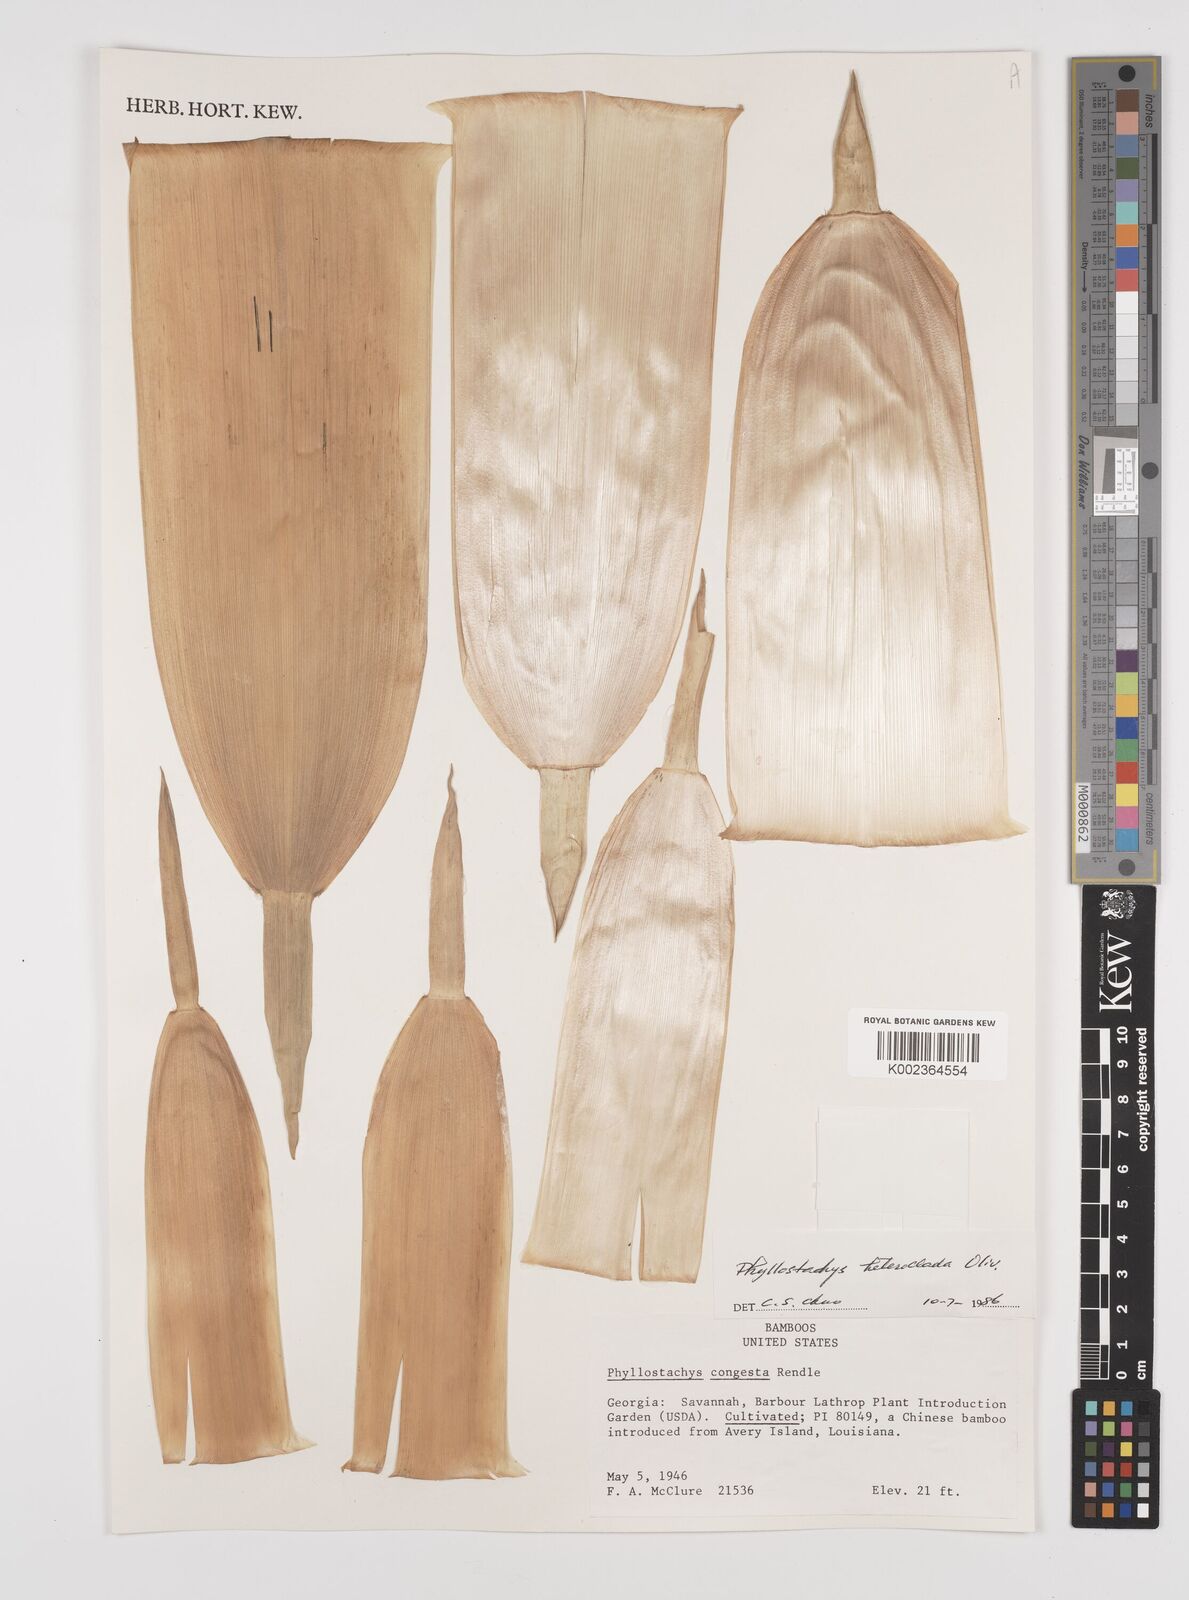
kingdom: Plantae
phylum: Tracheophyta
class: Liliopsida
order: Poales
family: Poaceae
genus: Phyllostachys
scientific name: Phyllostachys heteroclada
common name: Fishscale bamboo
